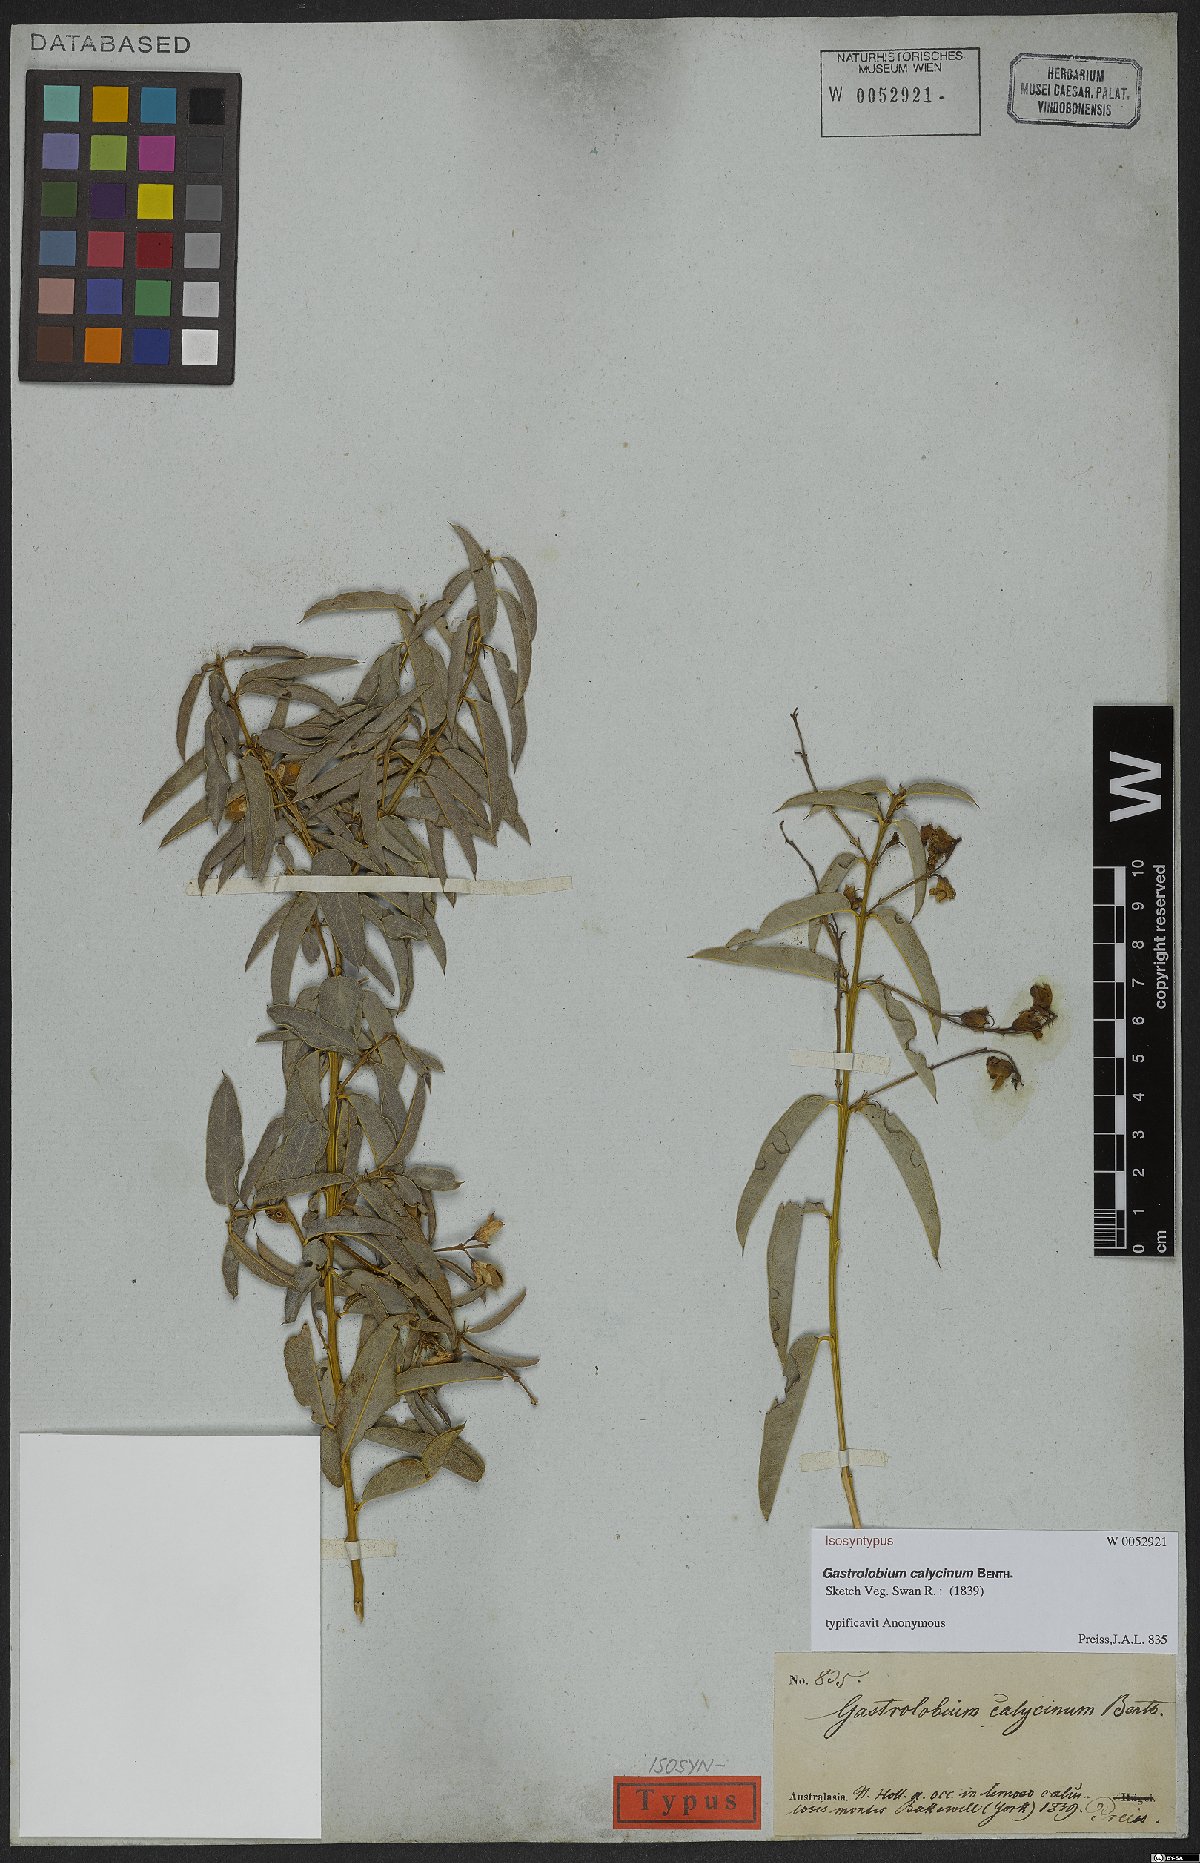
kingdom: Plantae
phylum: Tracheophyta
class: Magnoliopsida
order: Fabales
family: Fabaceae
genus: Gastrolobium
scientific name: Gastrolobium calycinum
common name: York road poison
